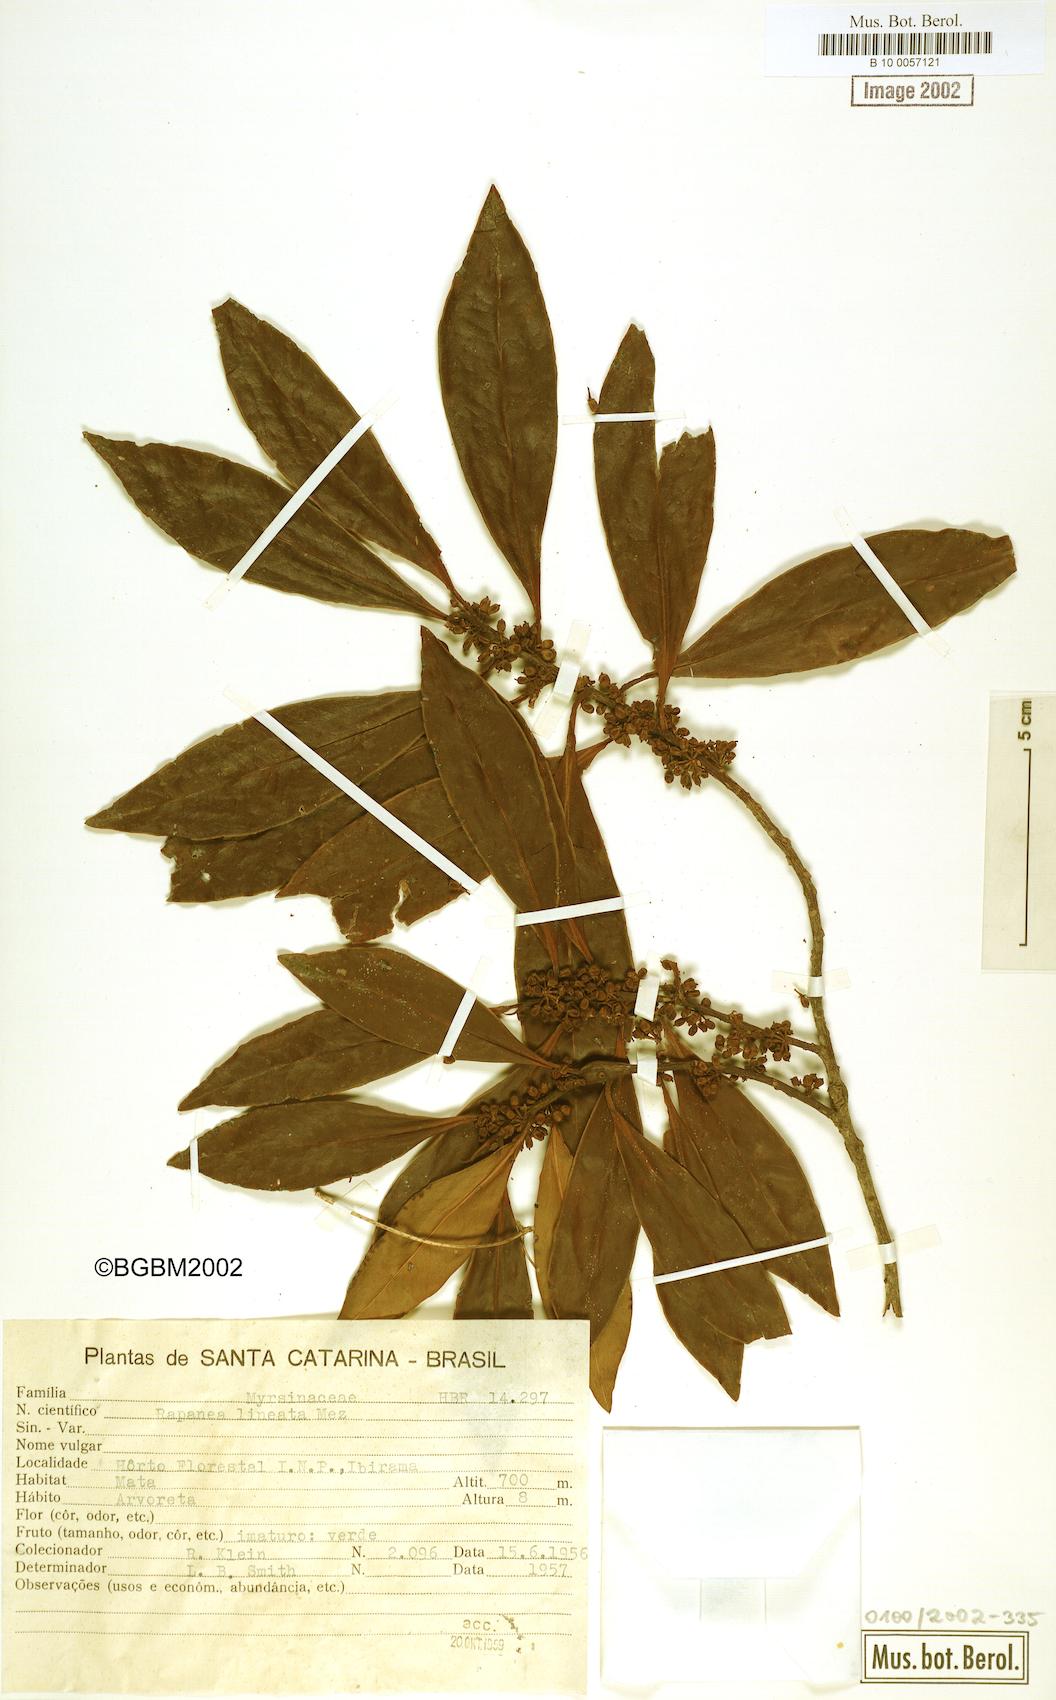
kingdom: Plantae
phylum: Tracheophyta
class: Magnoliopsida
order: Ericales
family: Primulaceae
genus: Myrsine
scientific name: Myrsine lineata
